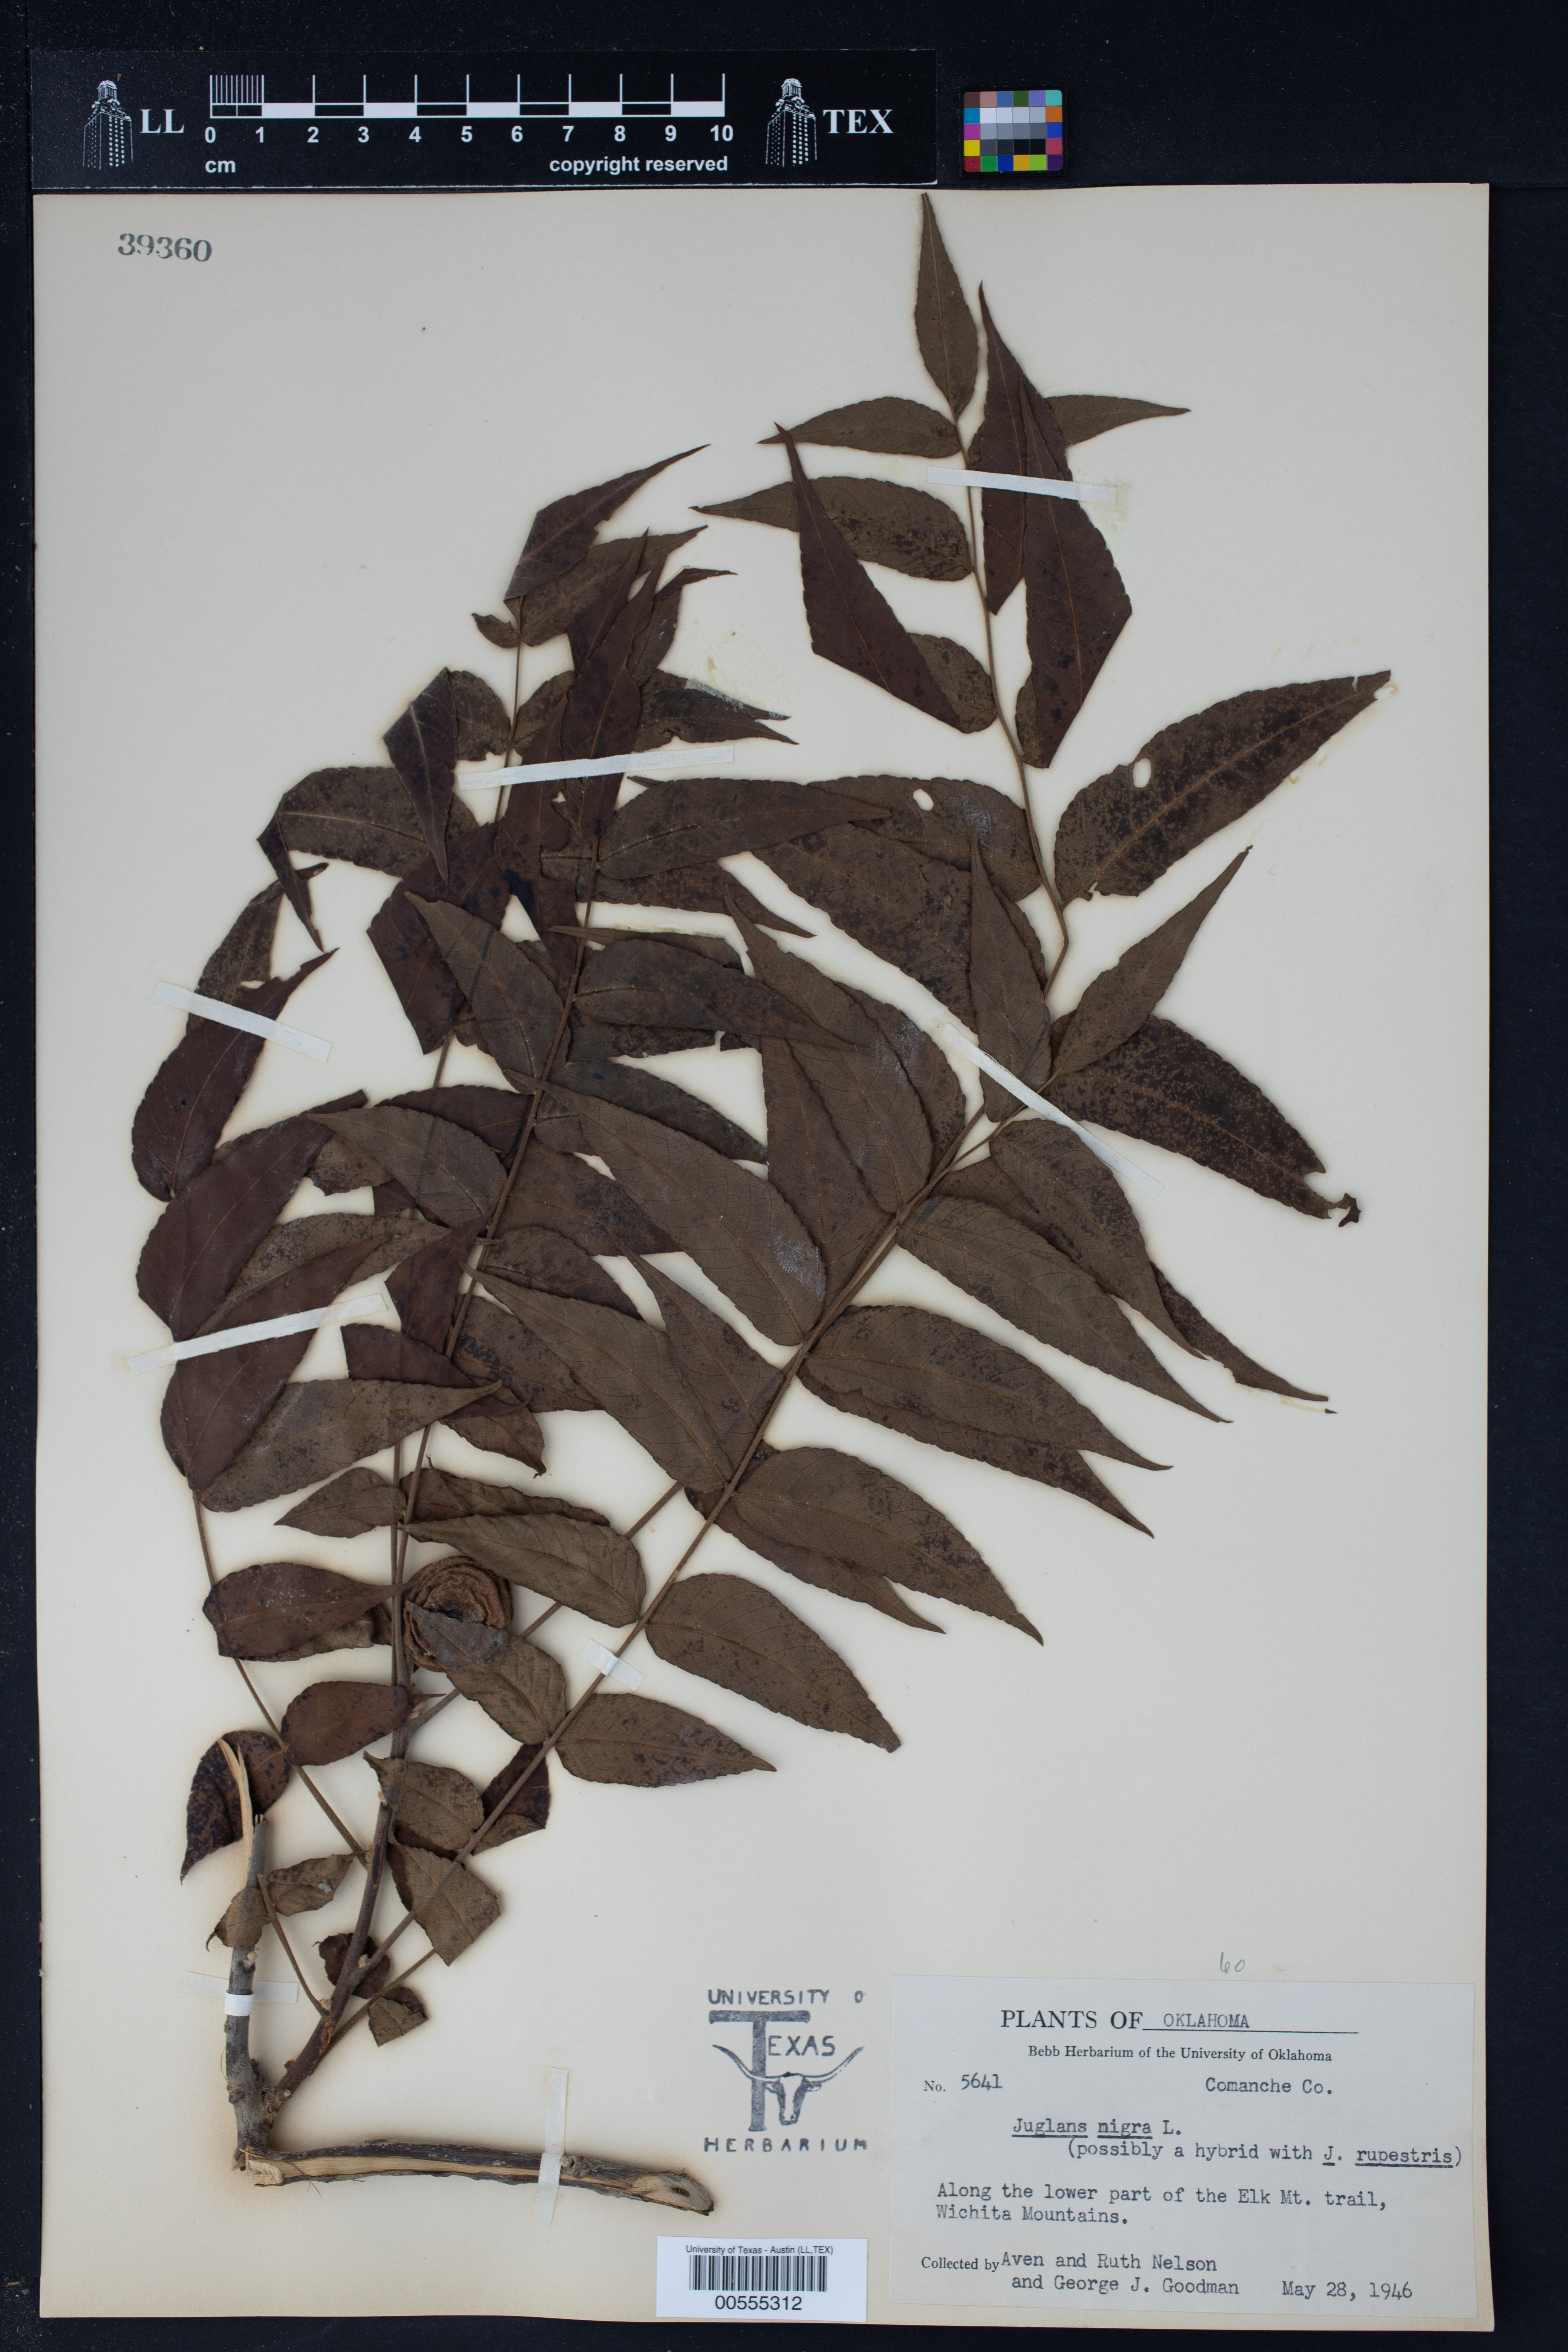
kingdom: Plantae
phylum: Tracheophyta
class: Magnoliopsida
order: Fagales
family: Juglandaceae
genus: Juglans
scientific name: Juglans nigra
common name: Black walnut
